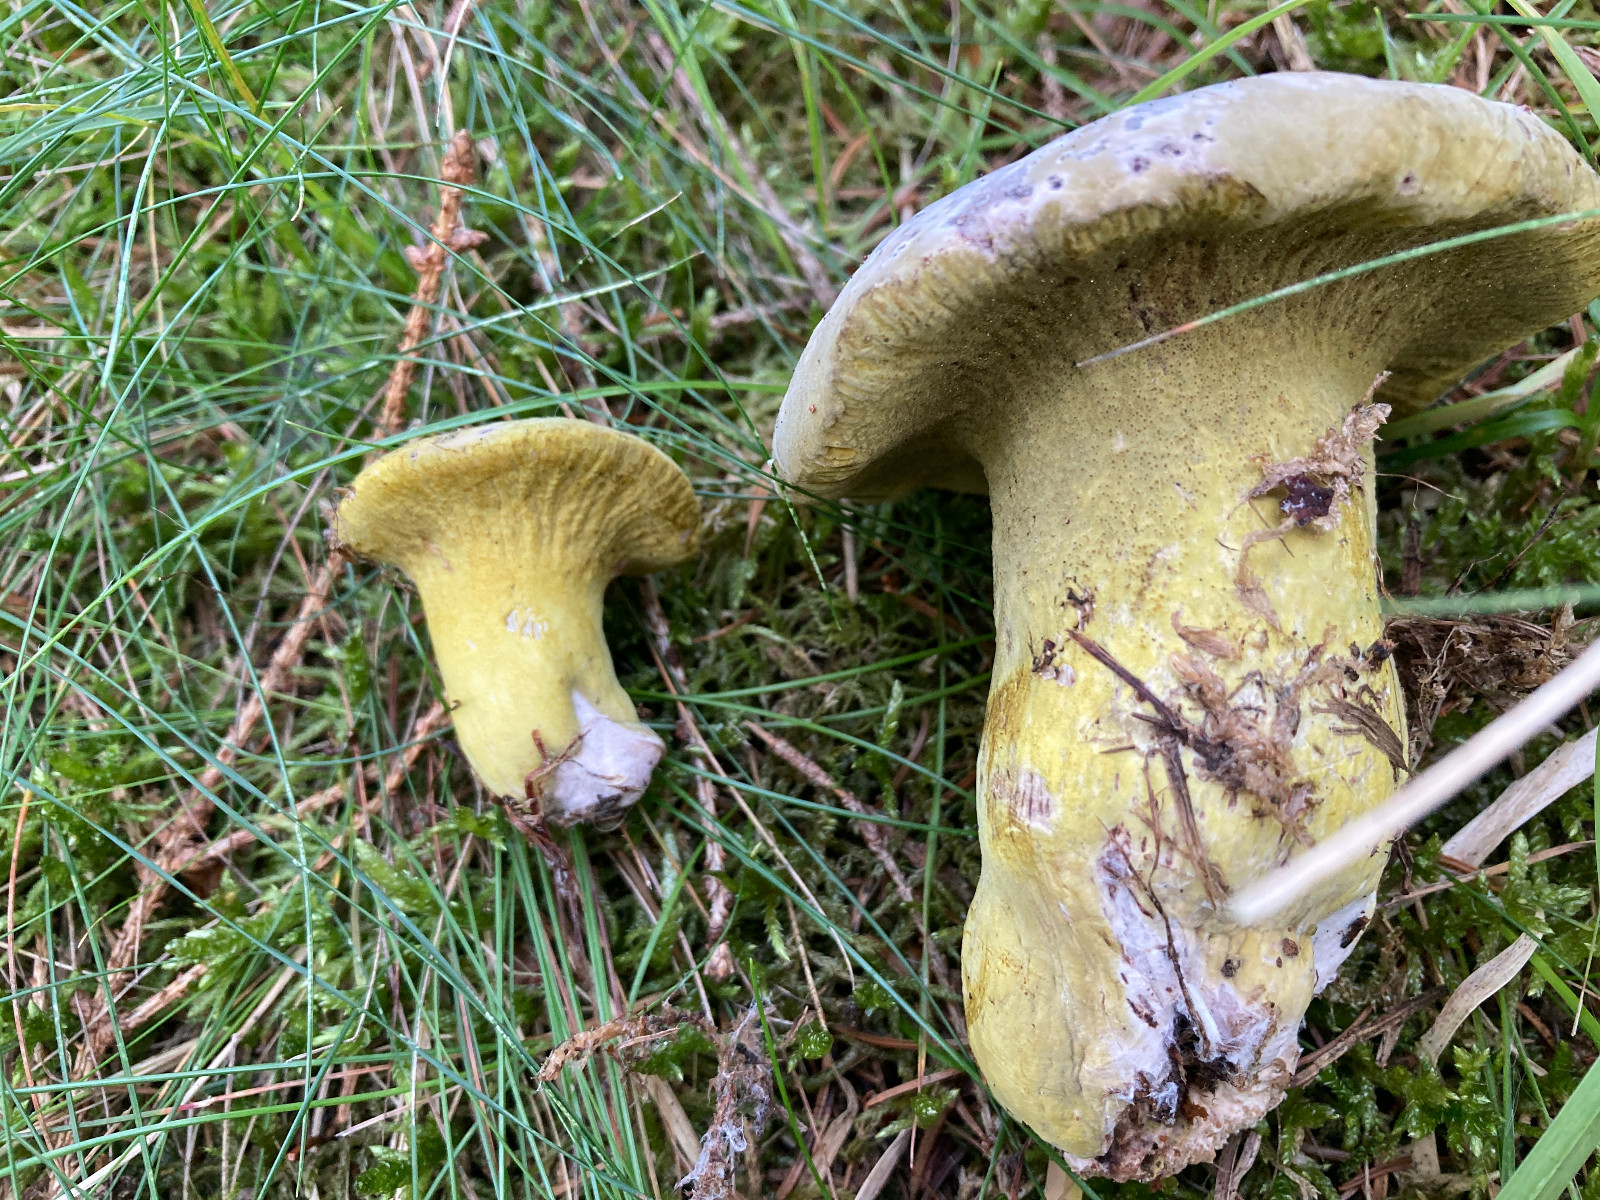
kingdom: Fungi
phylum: Ascomycota
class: Sordariomycetes
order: Hypocreales
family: Hypocreaceae
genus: Hypomyces
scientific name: Hypomyces luteovirens
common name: gulgrøn snylteskorpe
